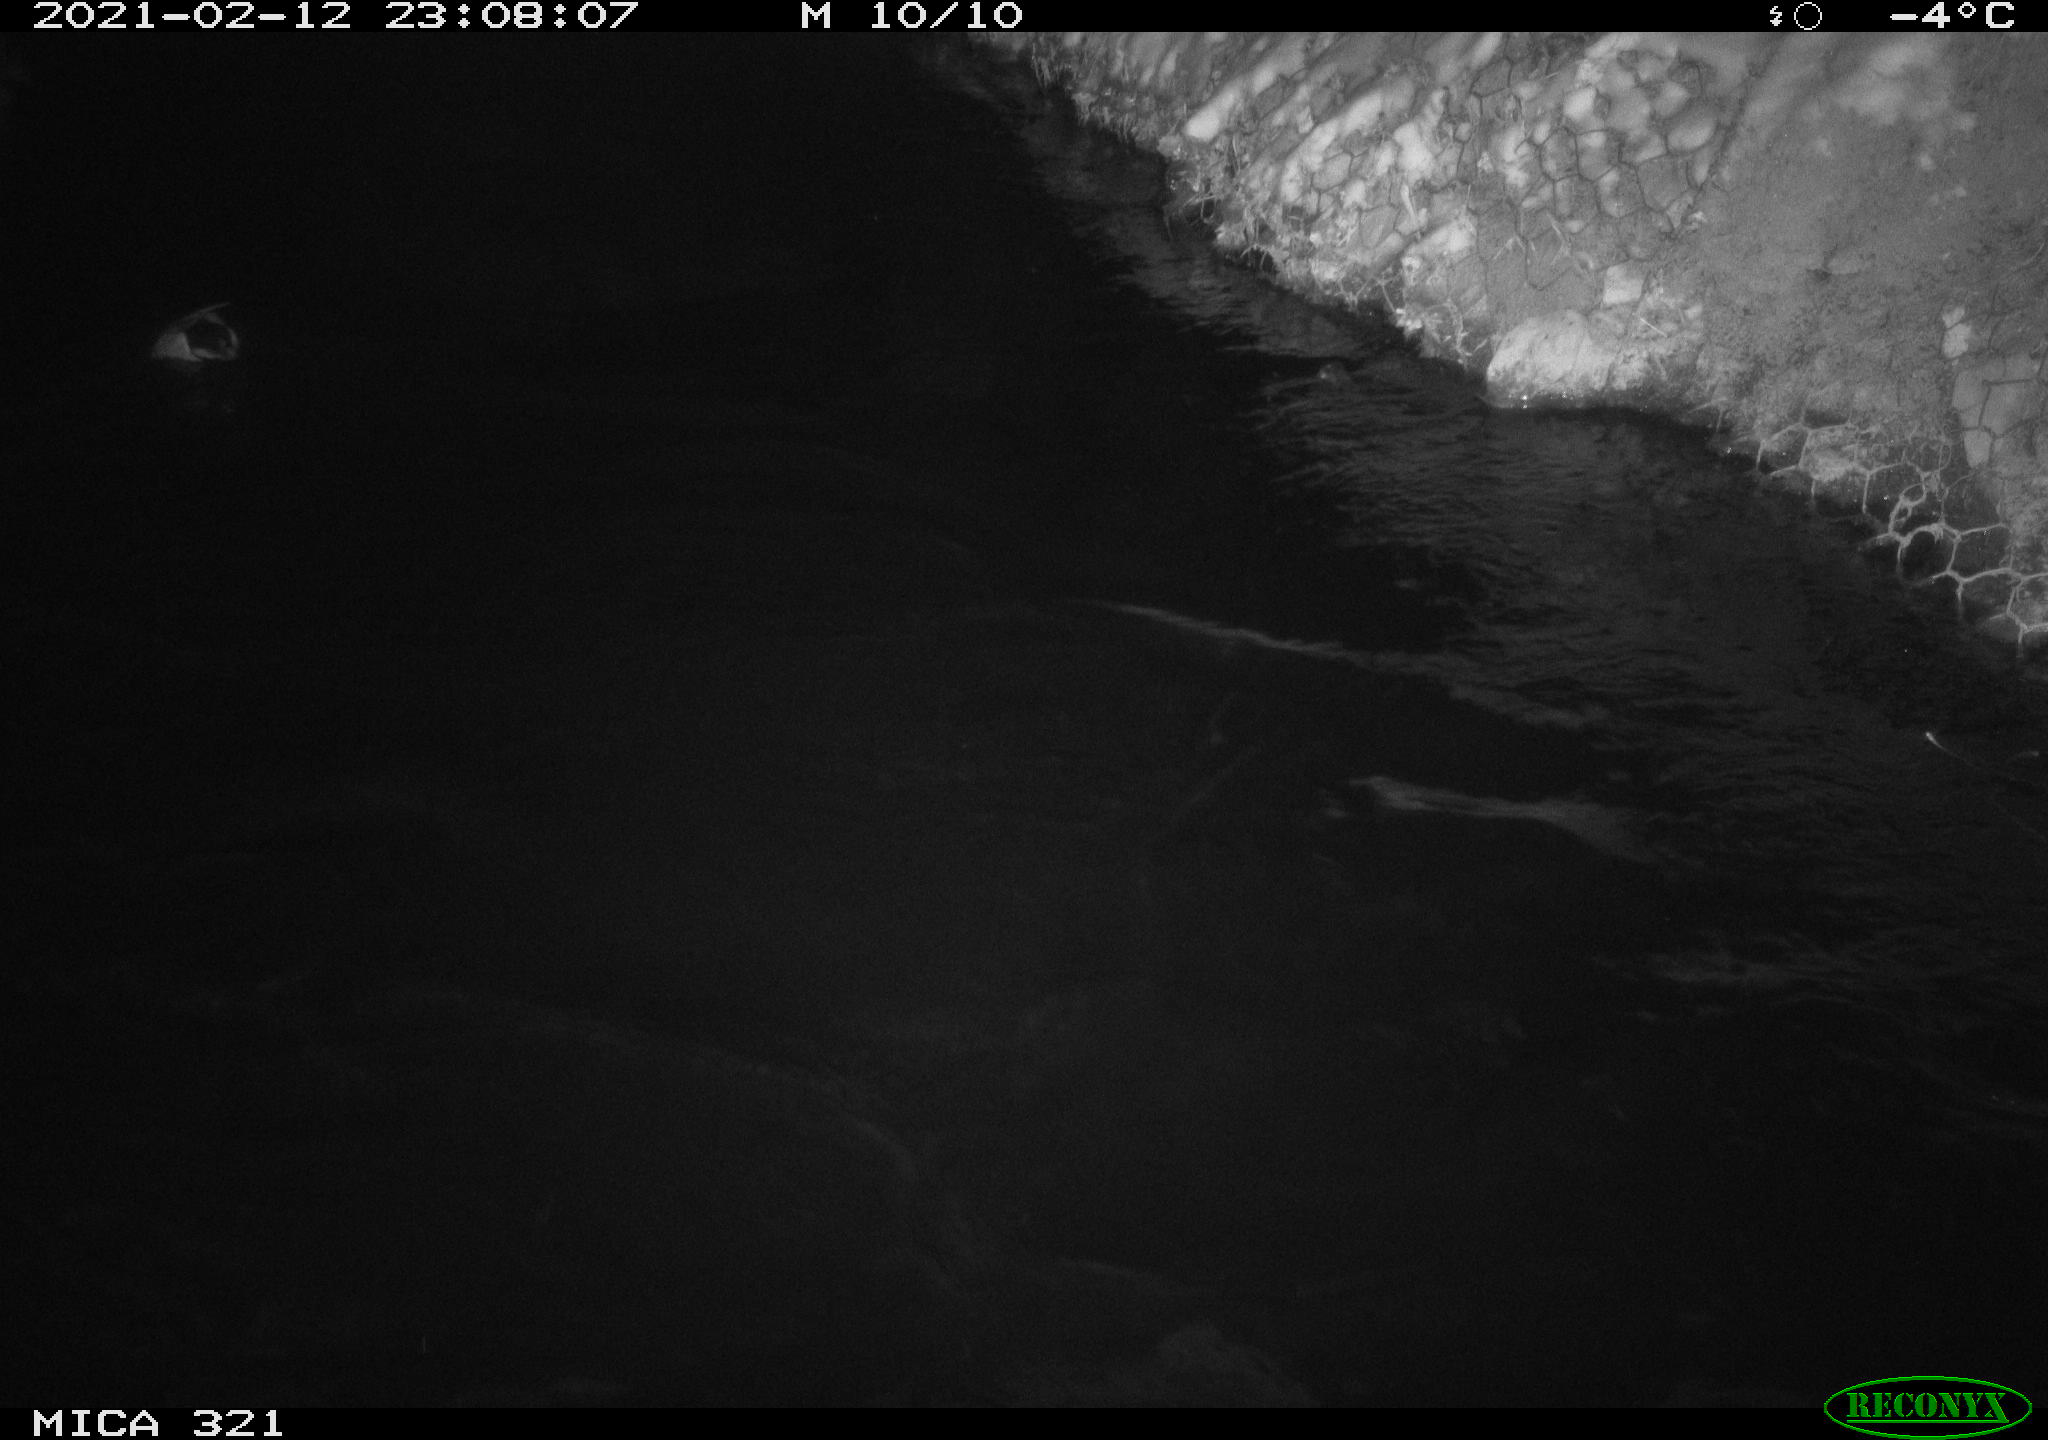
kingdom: Animalia
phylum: Chordata
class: Aves
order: Anseriformes
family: Anatidae
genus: Anas
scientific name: Anas platyrhynchos
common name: Mallard
